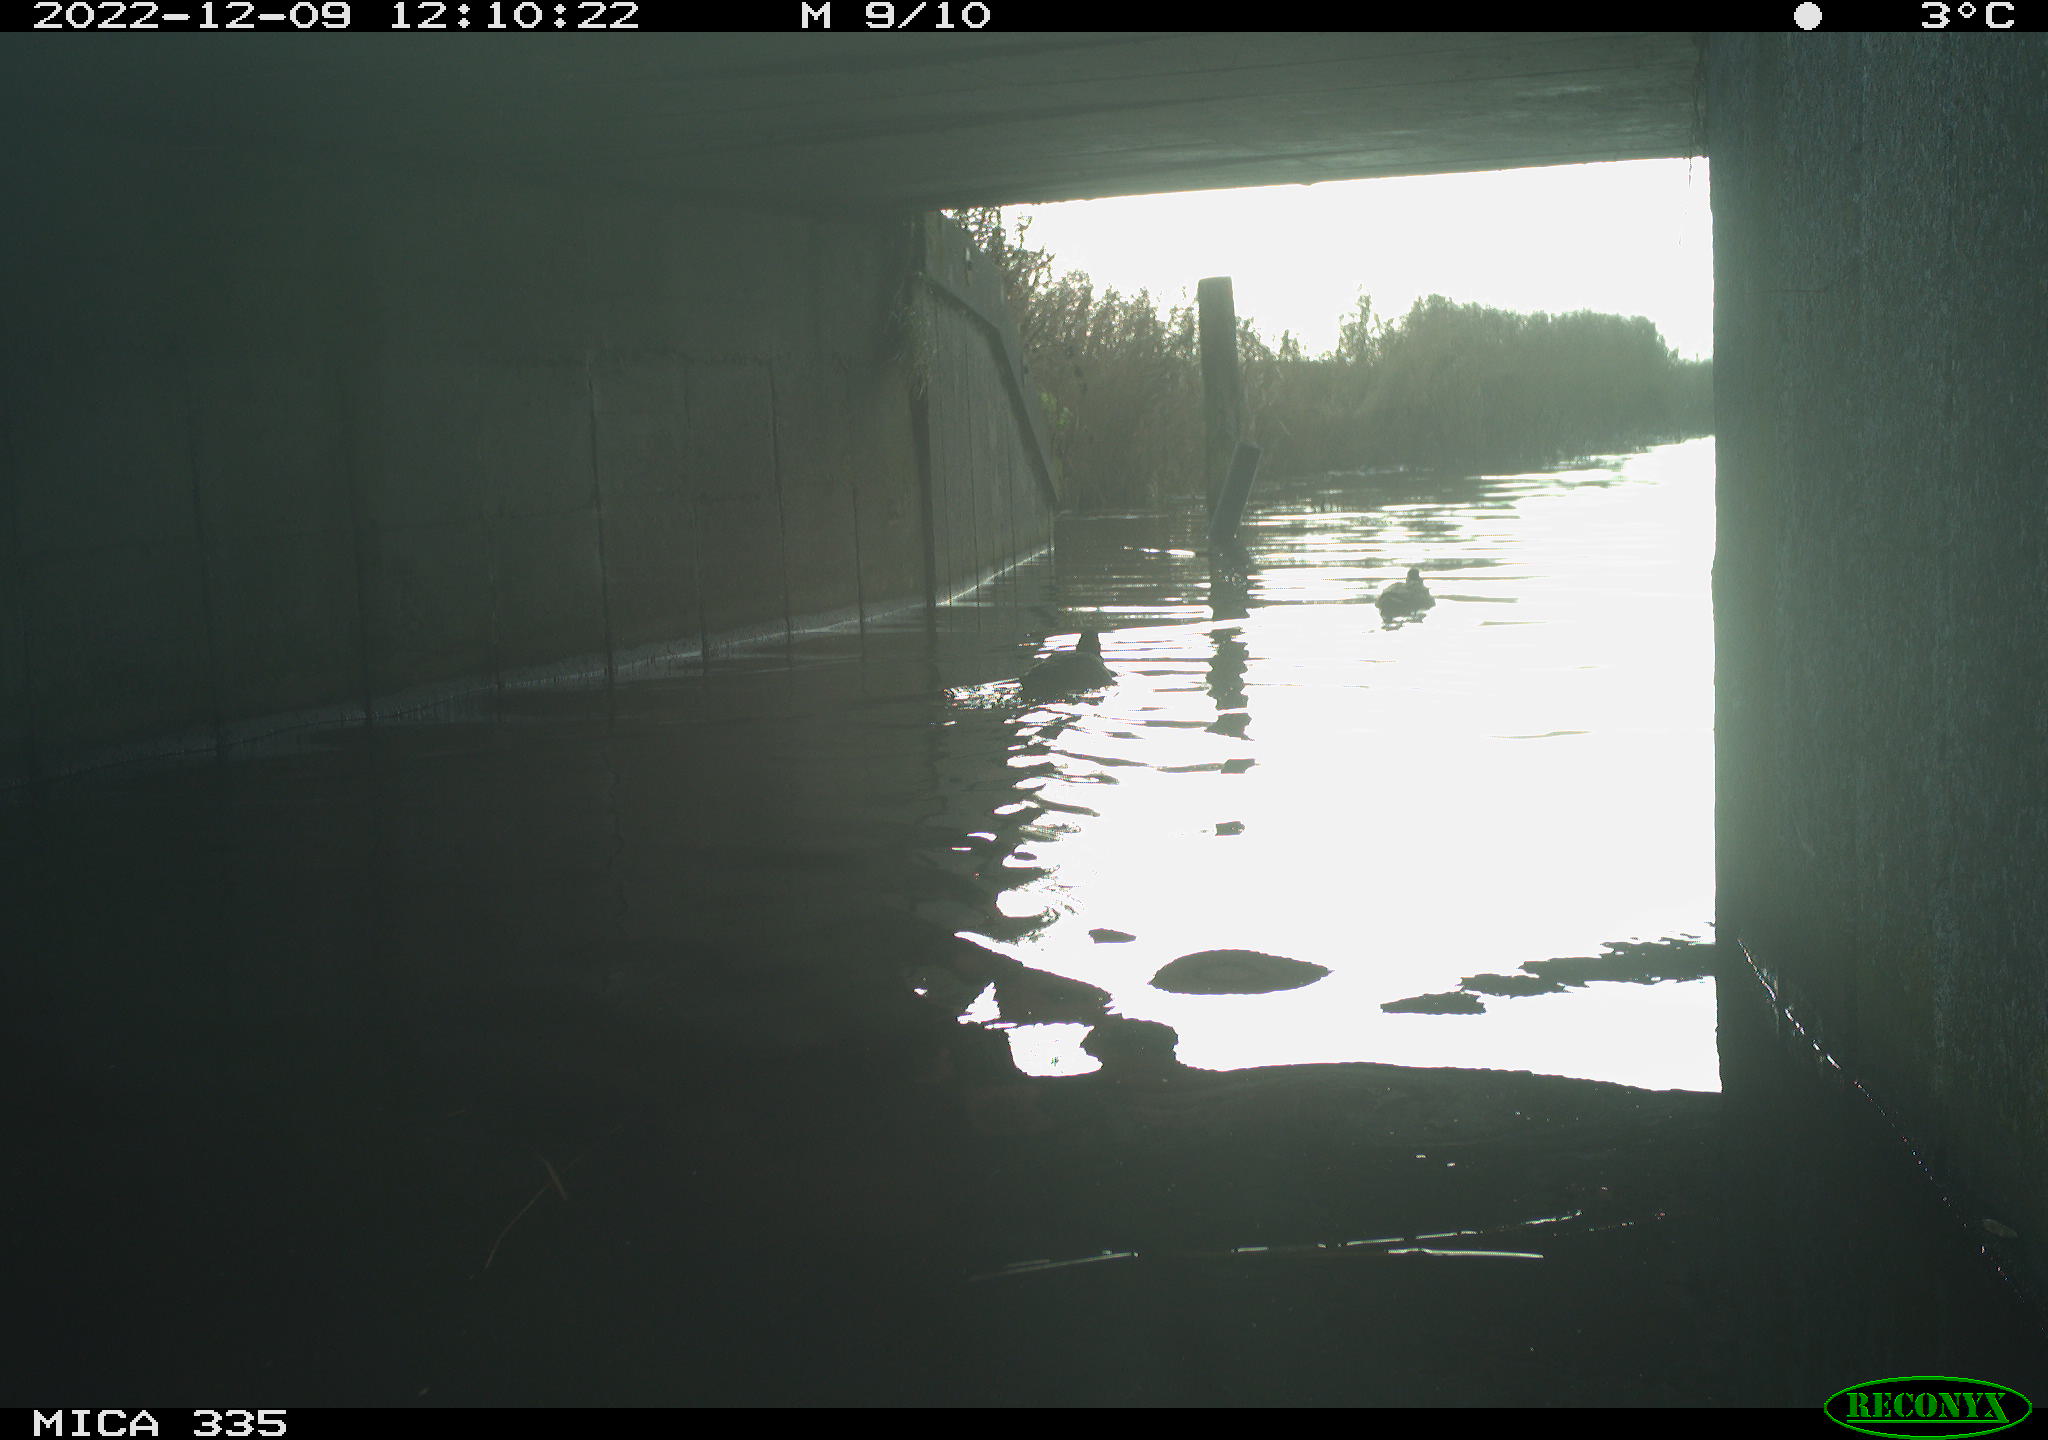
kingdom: Animalia
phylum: Chordata
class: Aves
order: Anseriformes
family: Anatidae
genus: Anas
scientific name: Anas
